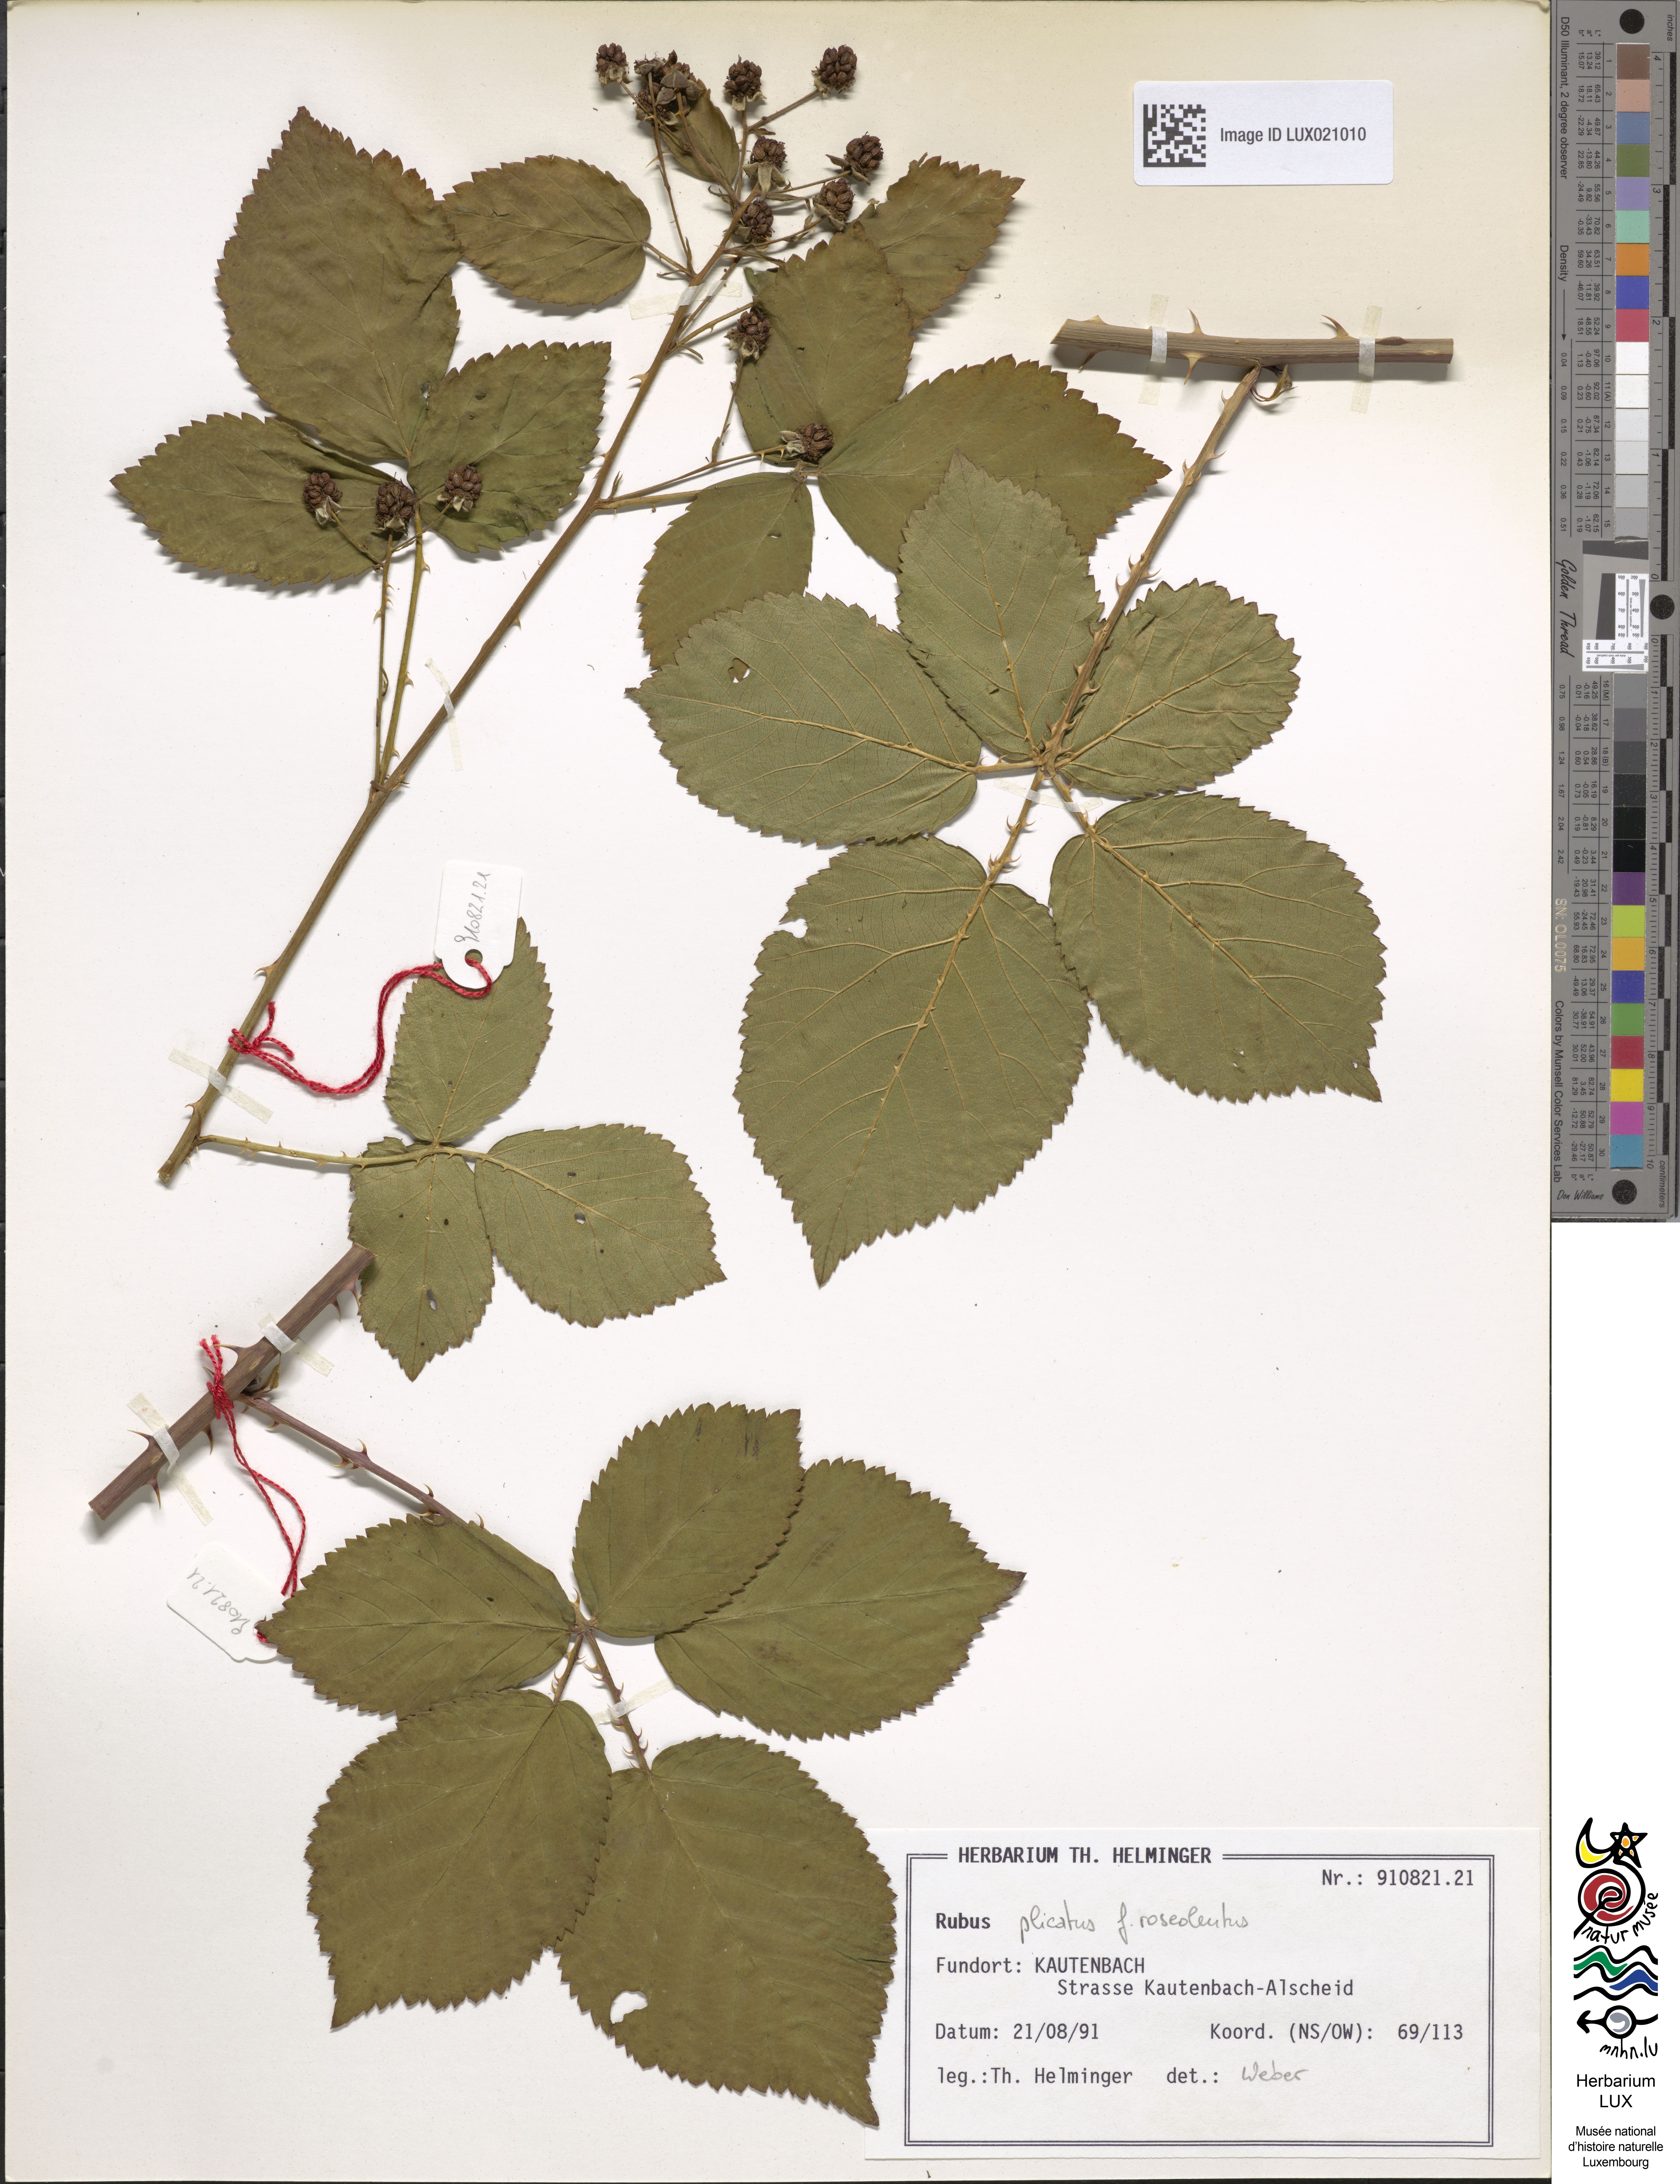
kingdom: Plantae
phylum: Tracheophyta
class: Magnoliopsida
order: Rosales
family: Rosaceae
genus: Rubus
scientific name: Rubus
